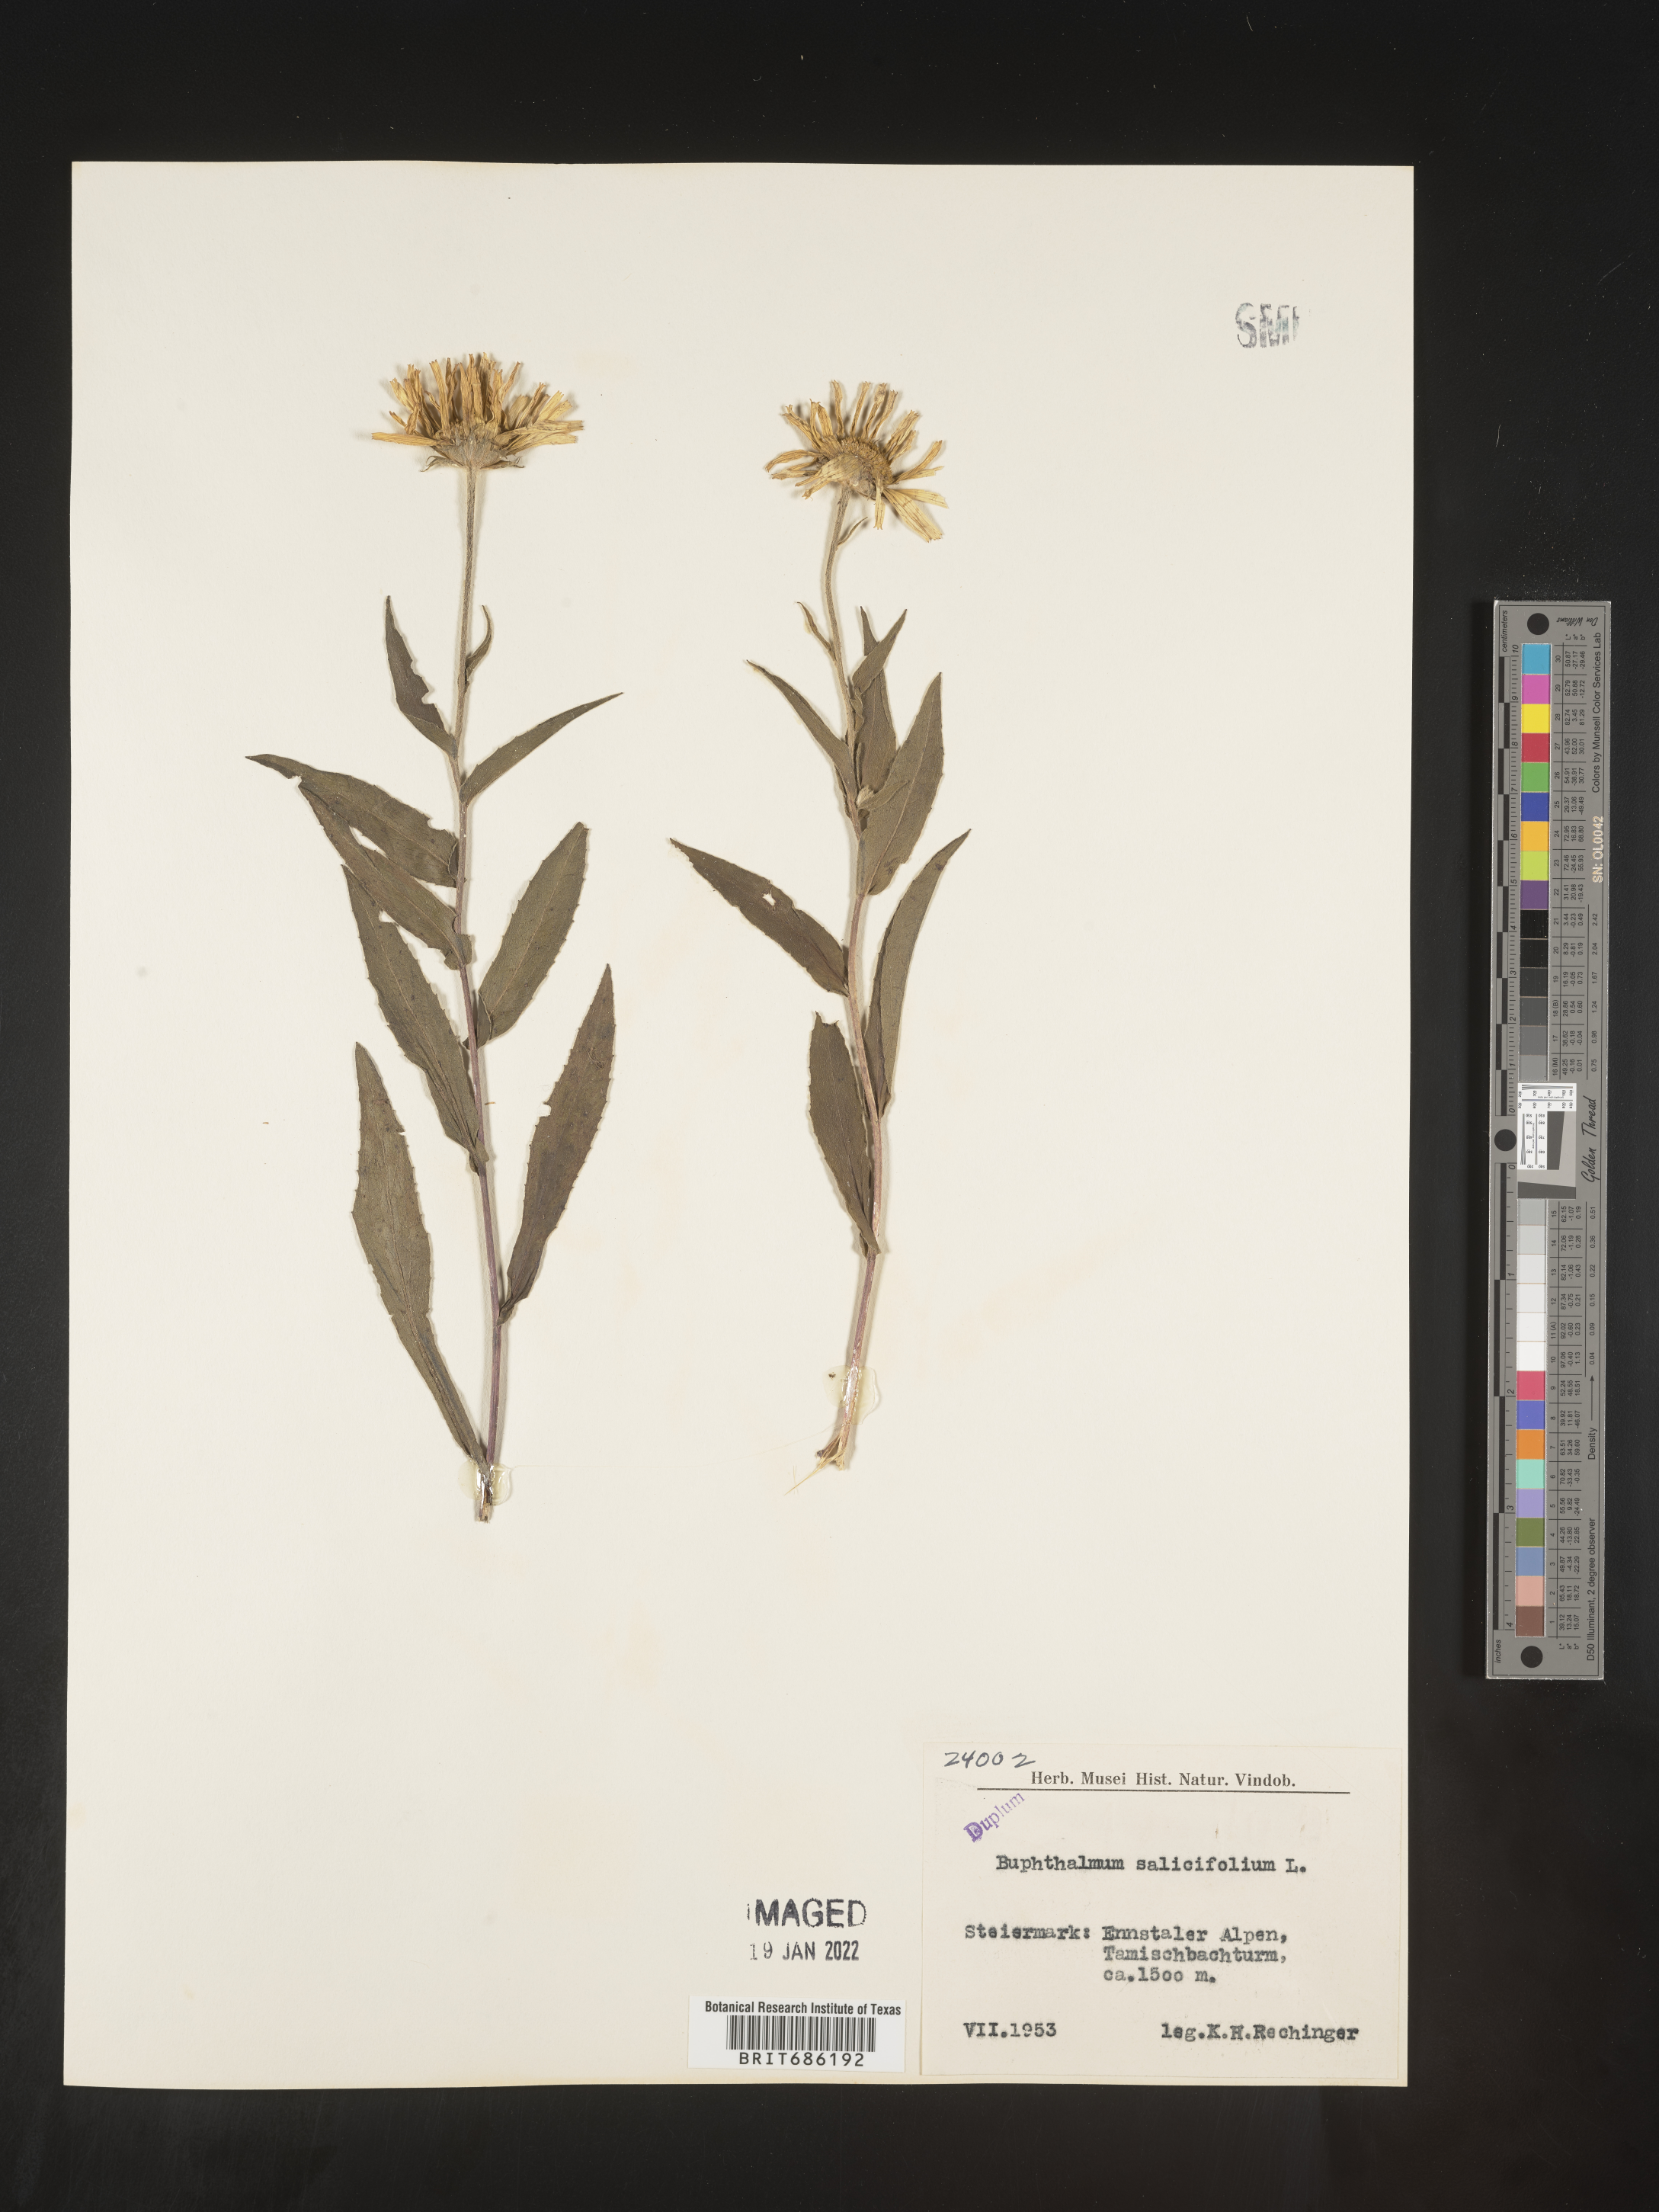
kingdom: Plantae
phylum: Tracheophyta
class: Magnoliopsida
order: Asterales
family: Asteraceae
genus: Buphthalmum
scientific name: Buphthalmum
